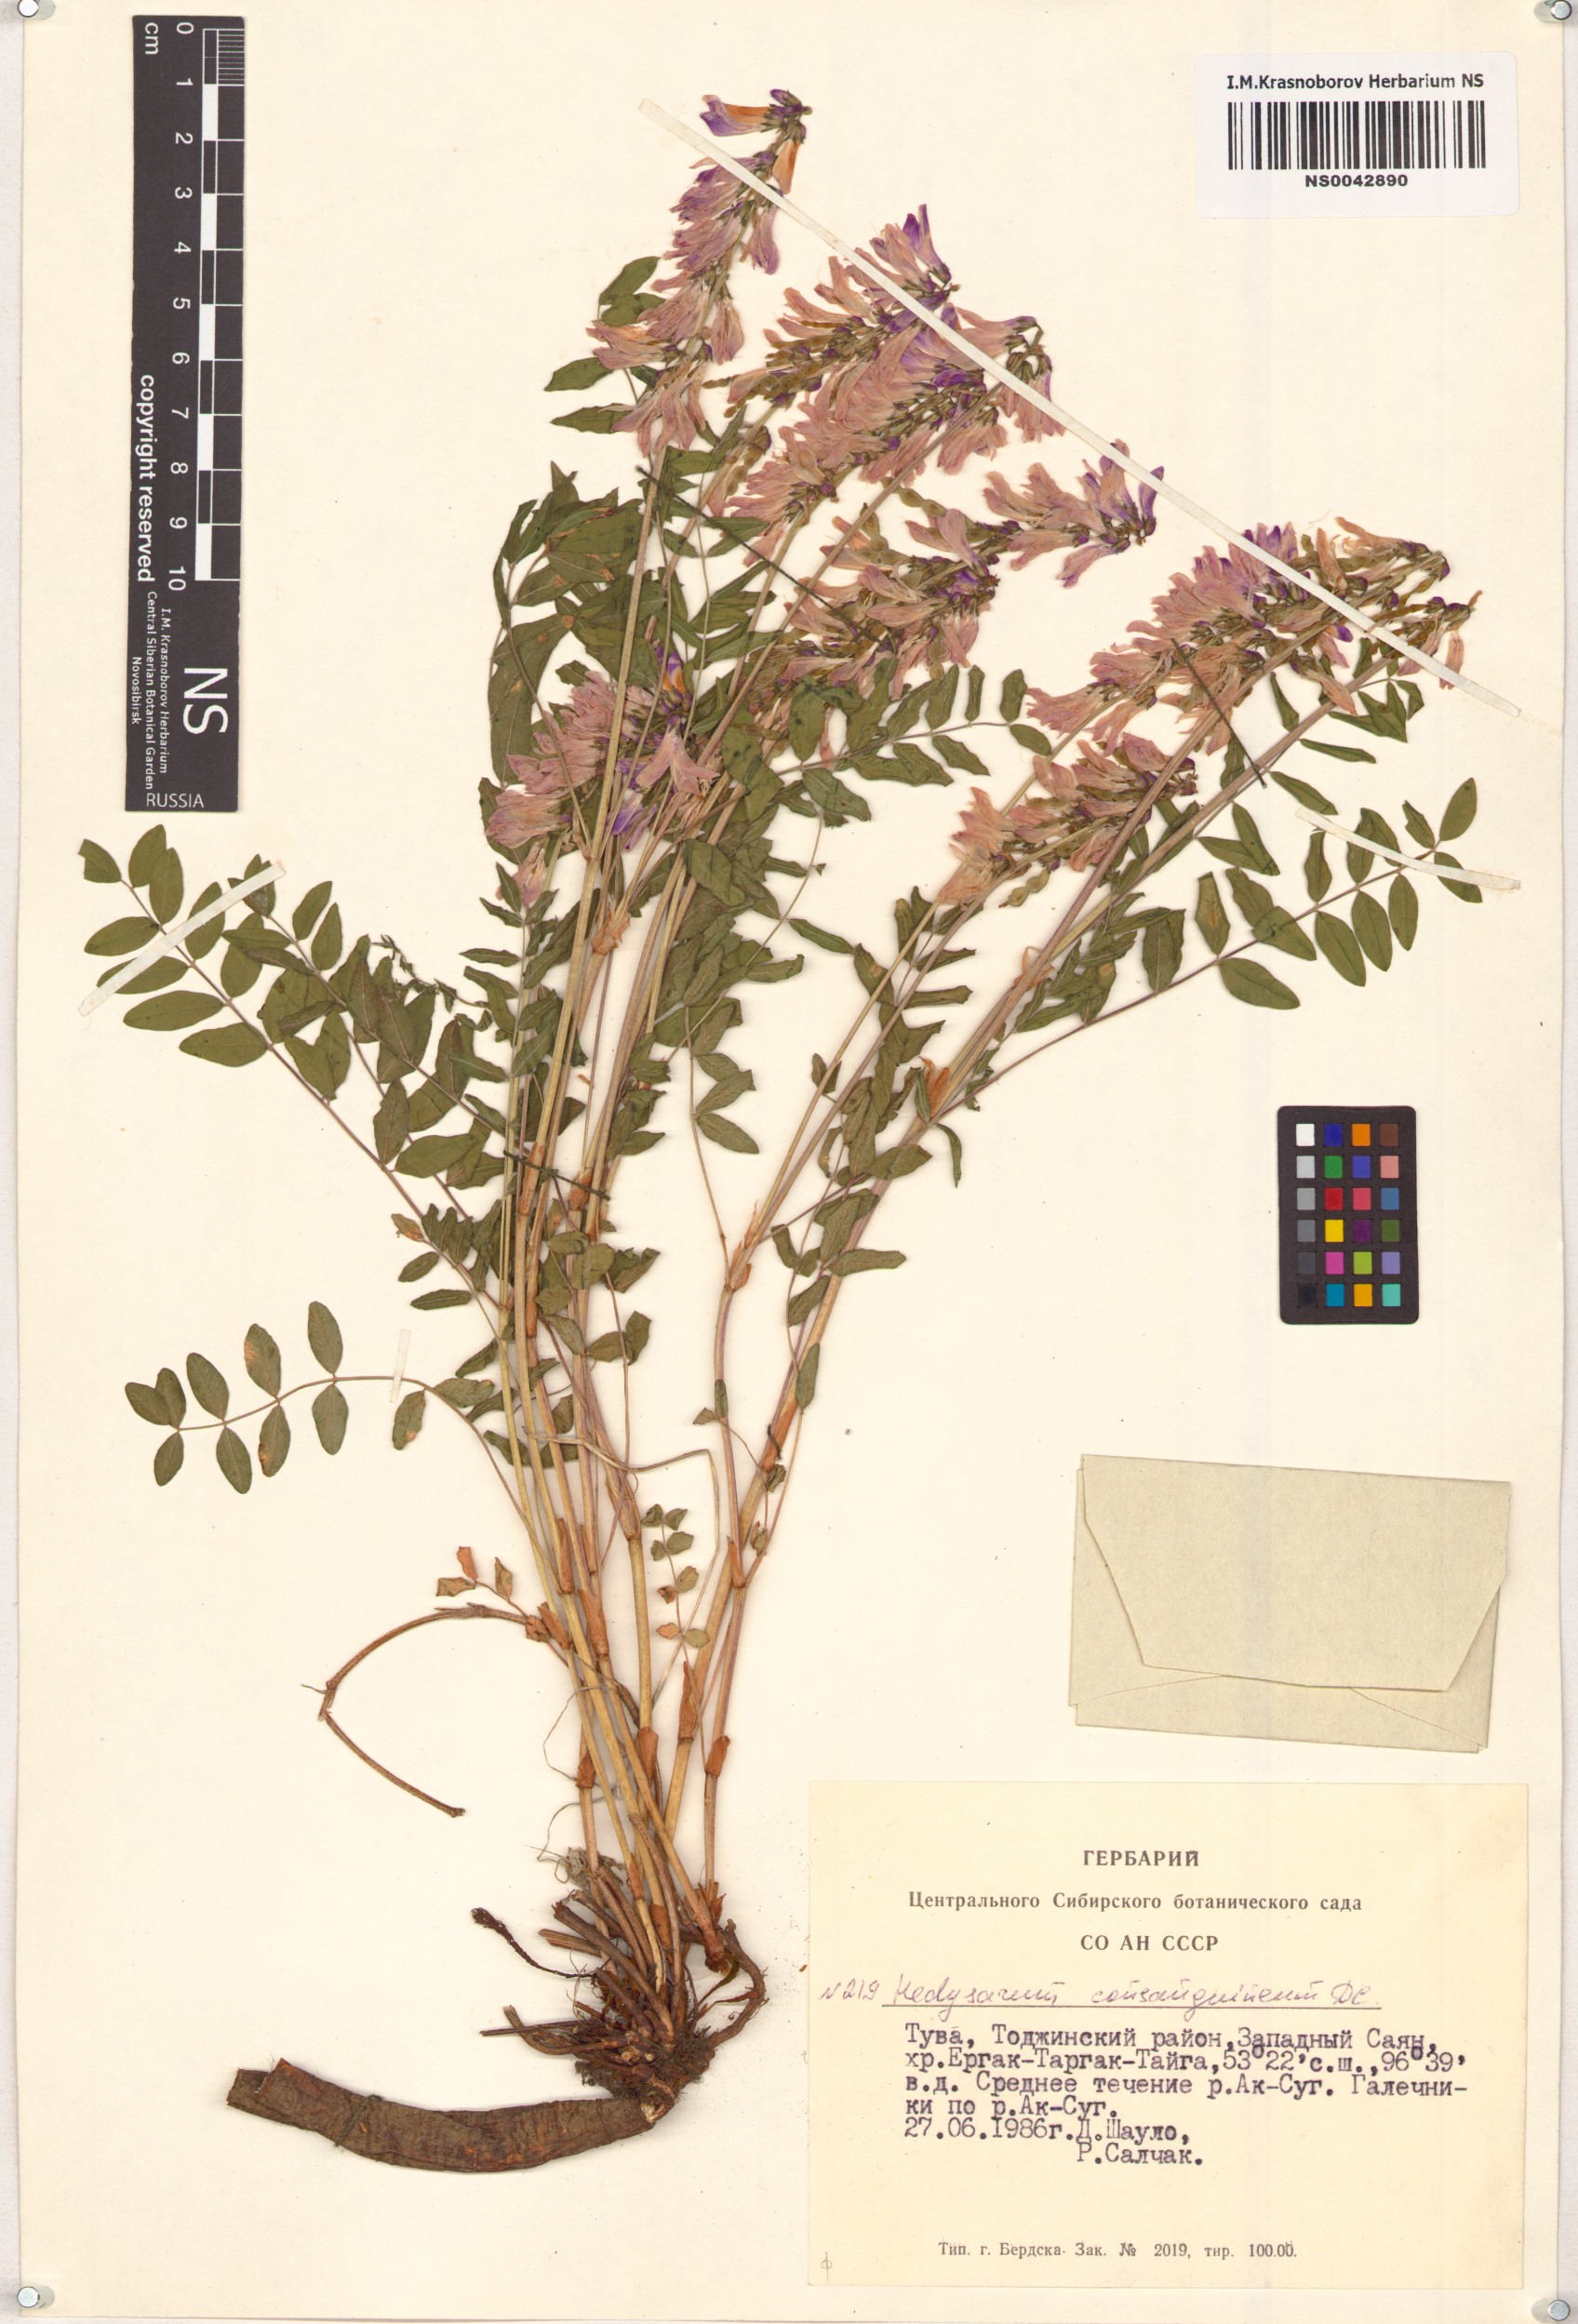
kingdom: Plantae
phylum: Tracheophyta
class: Magnoliopsida
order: Fabales
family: Fabaceae
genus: Hedysarum
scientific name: Hedysarum consanguineum
